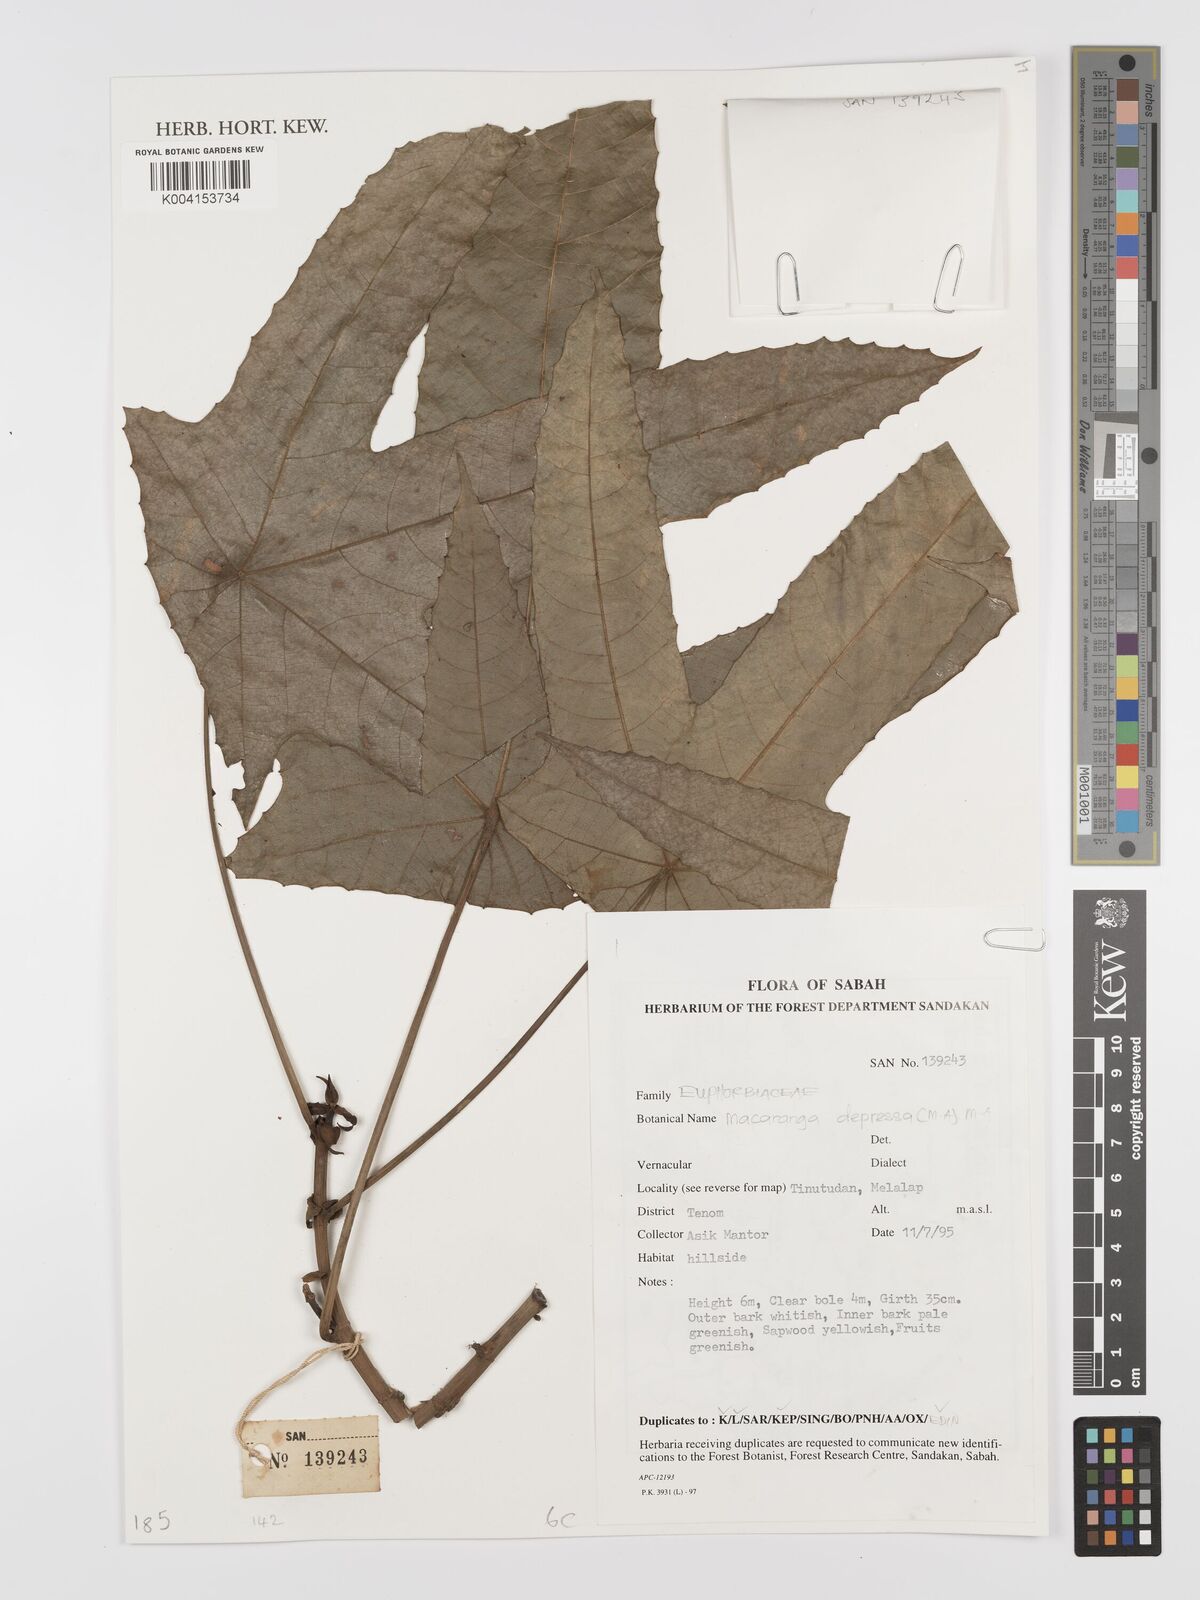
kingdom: Plantae
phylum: Tracheophyta
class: Magnoliopsida
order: Malpighiales
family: Euphorbiaceae
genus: Macaranga
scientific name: Macaranga depressa
